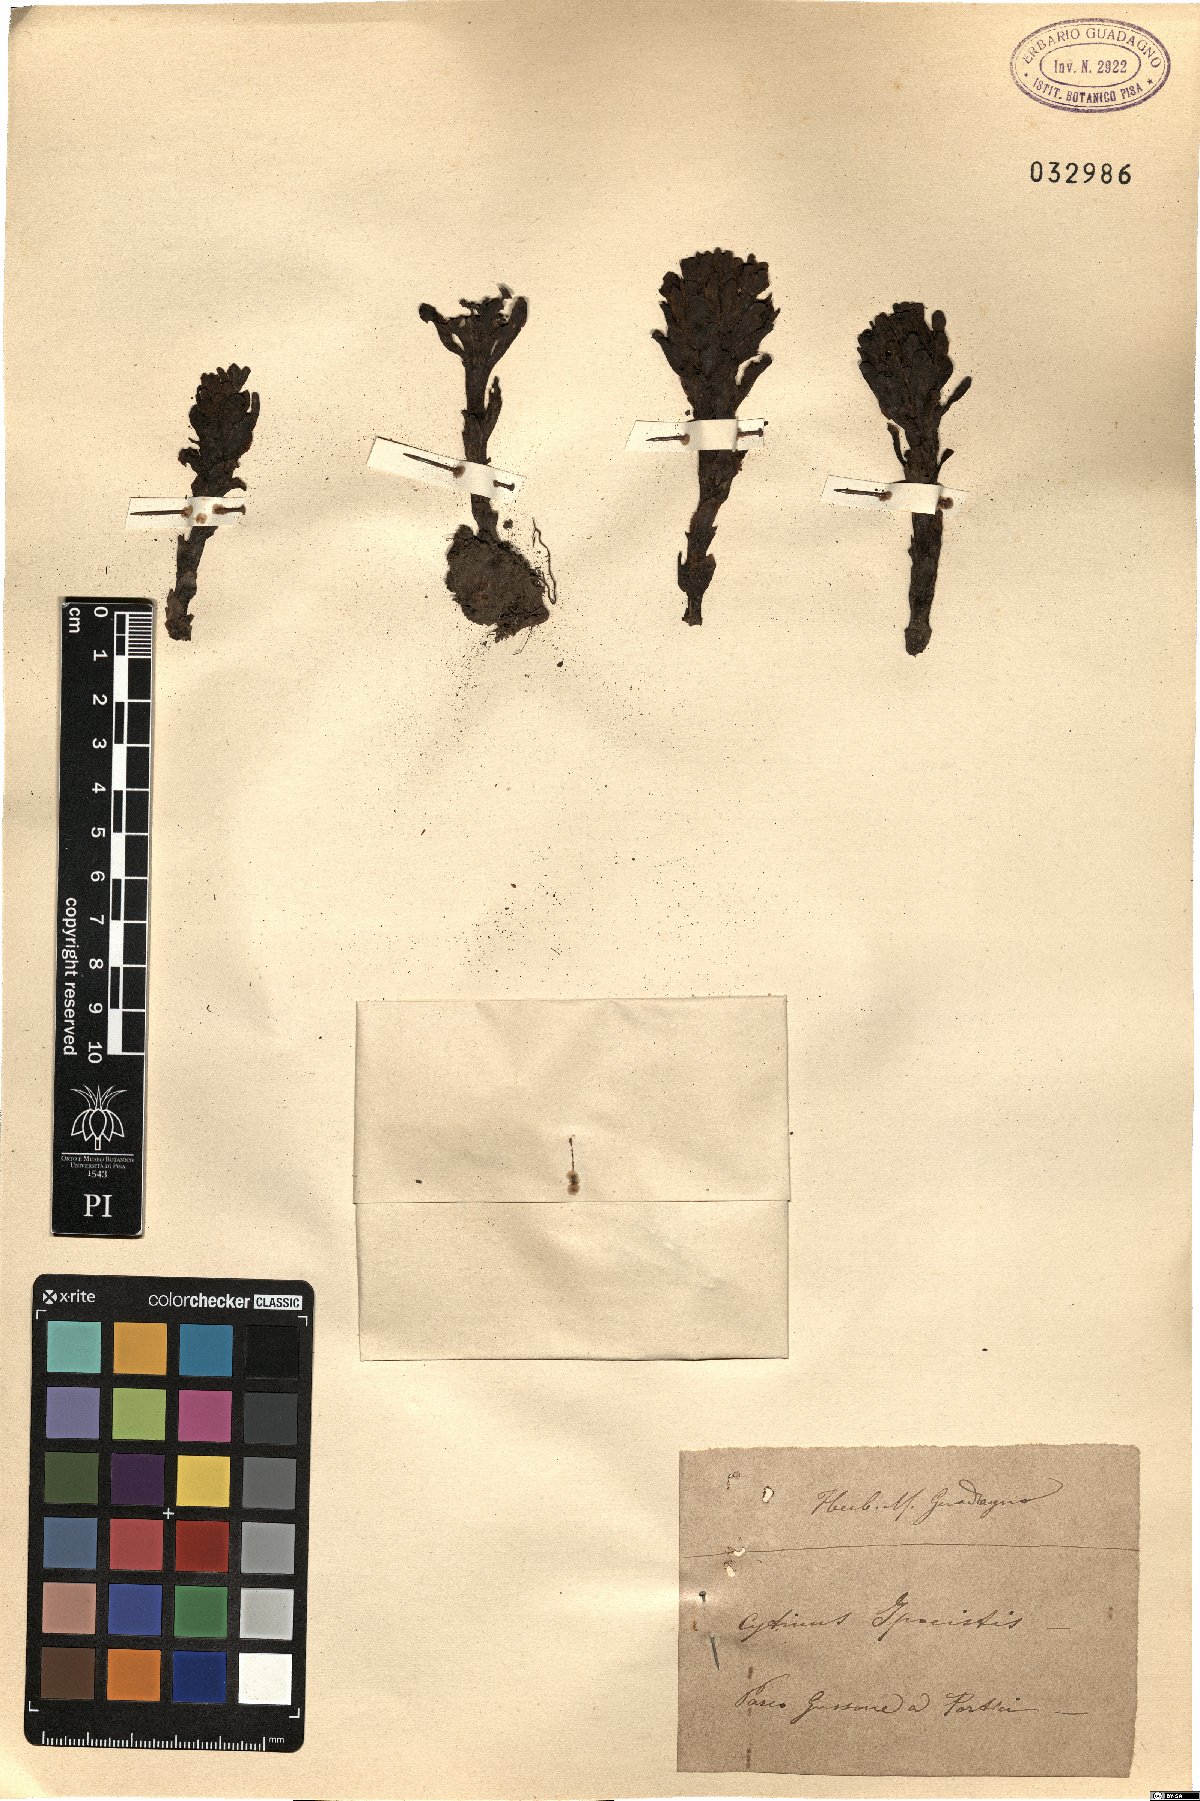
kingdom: Plantae
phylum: Tracheophyta
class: Magnoliopsida
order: Malvales
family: Cytinaceae
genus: Cytinus
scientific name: Cytinus hypocistis
